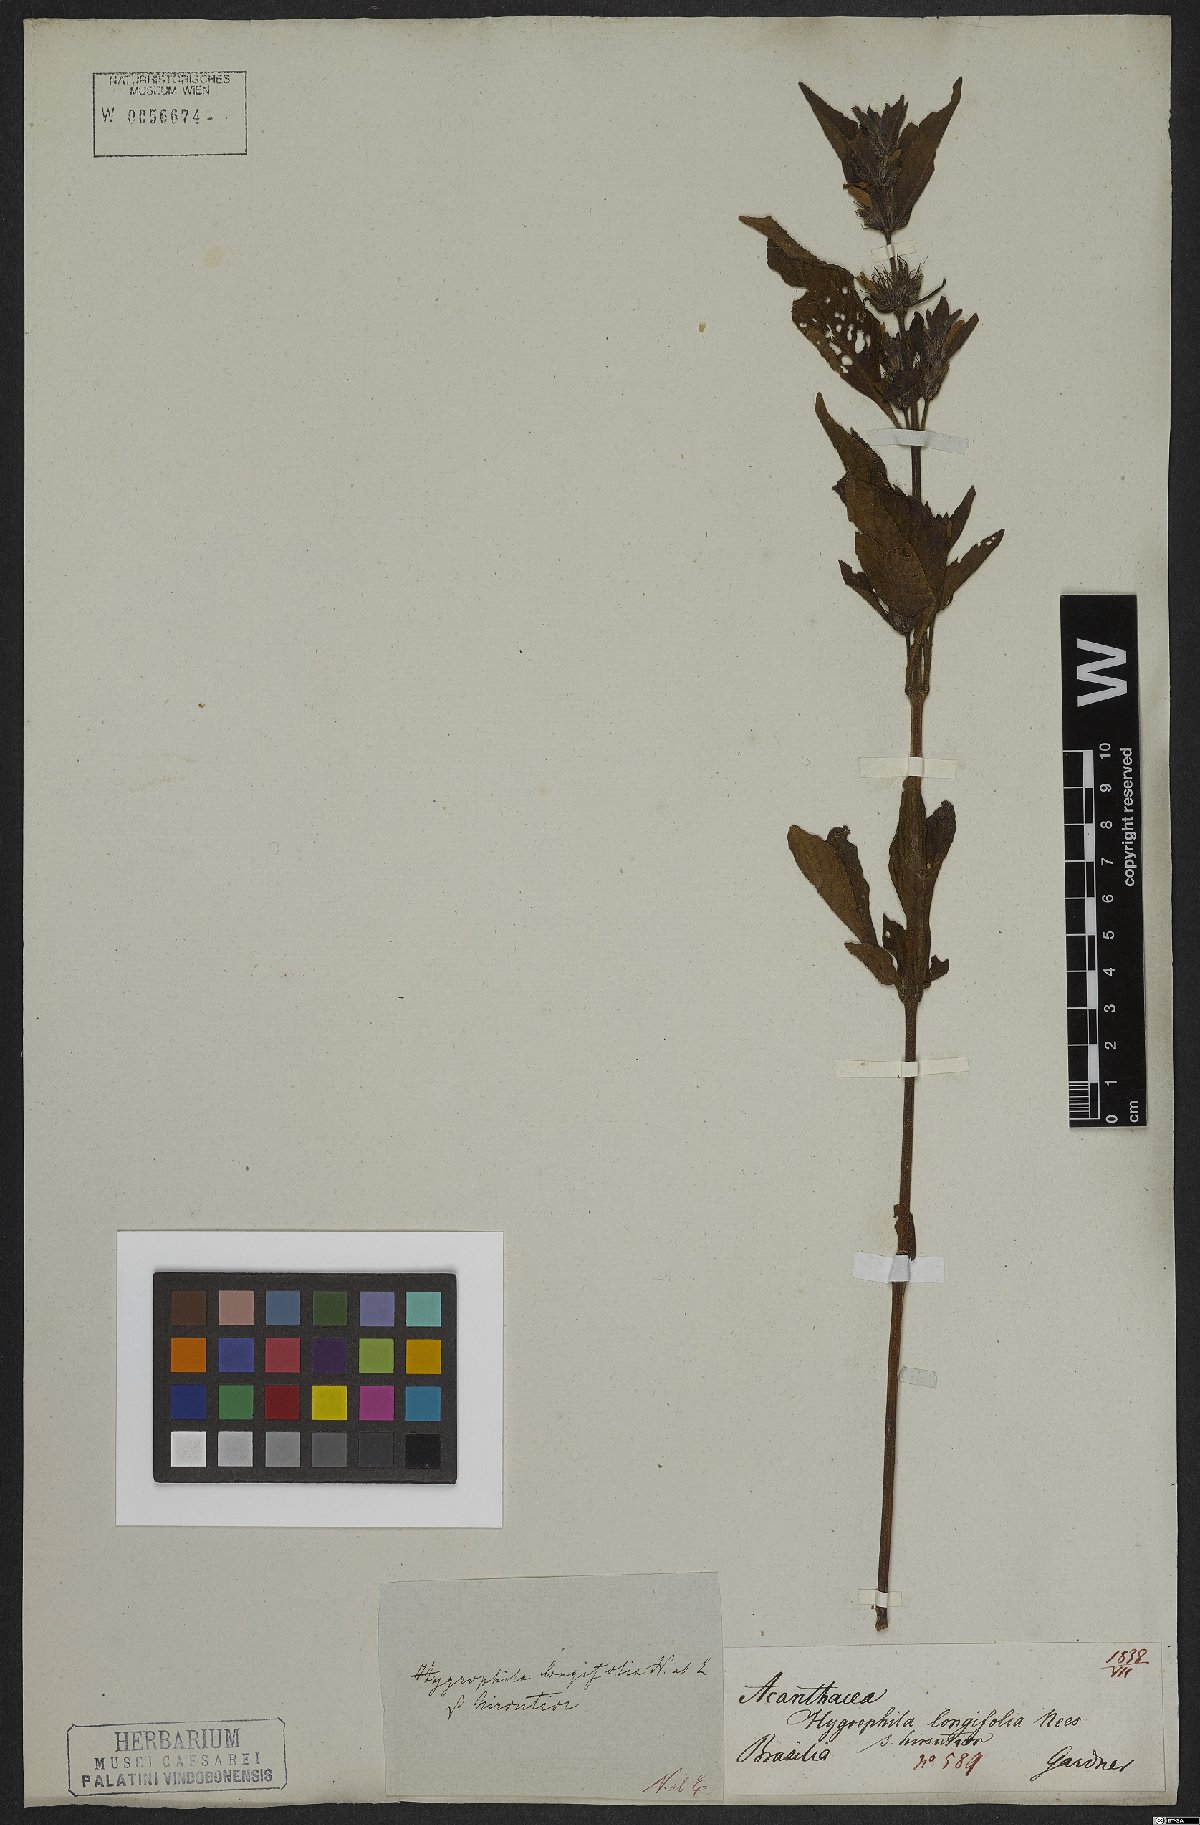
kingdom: Plantae
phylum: Tracheophyta
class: Magnoliopsida
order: Lamiales
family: Acanthaceae
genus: Hygrophila
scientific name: Hygrophila costata
